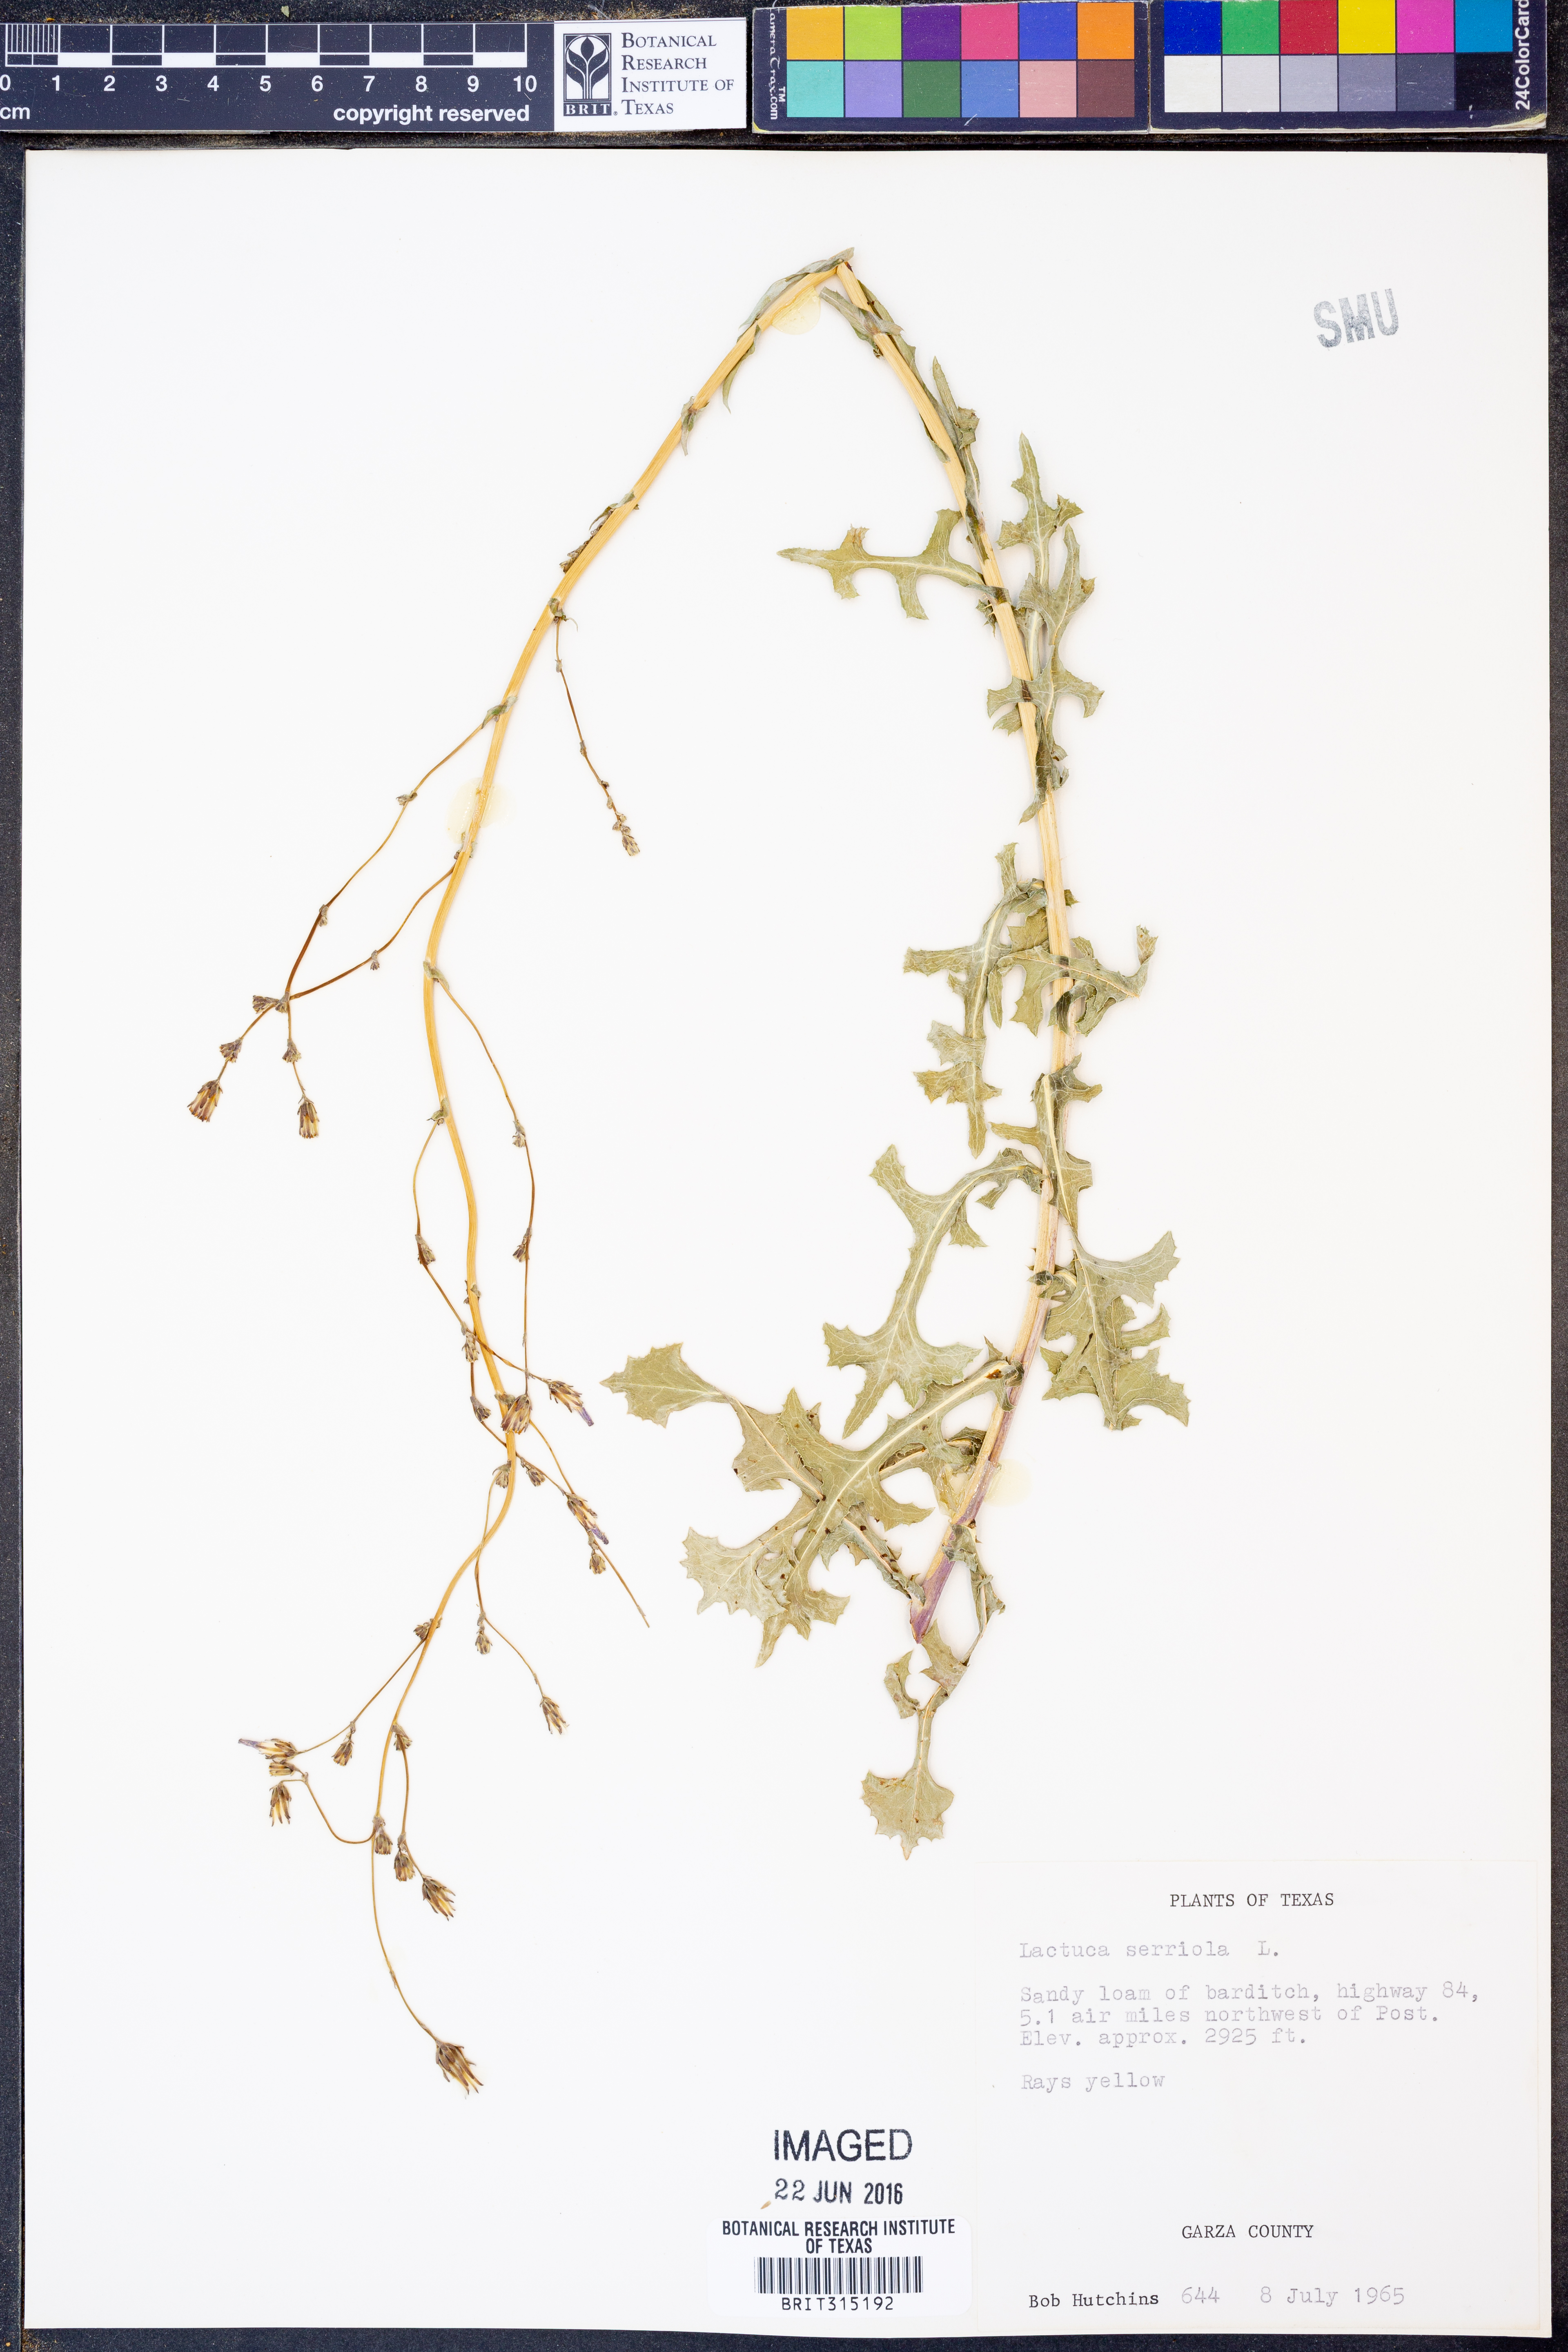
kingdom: Plantae
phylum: Tracheophyta
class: Magnoliopsida
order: Asterales
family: Asteraceae
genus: Lactuca
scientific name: Lactuca serriola
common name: Prickly lettuce
